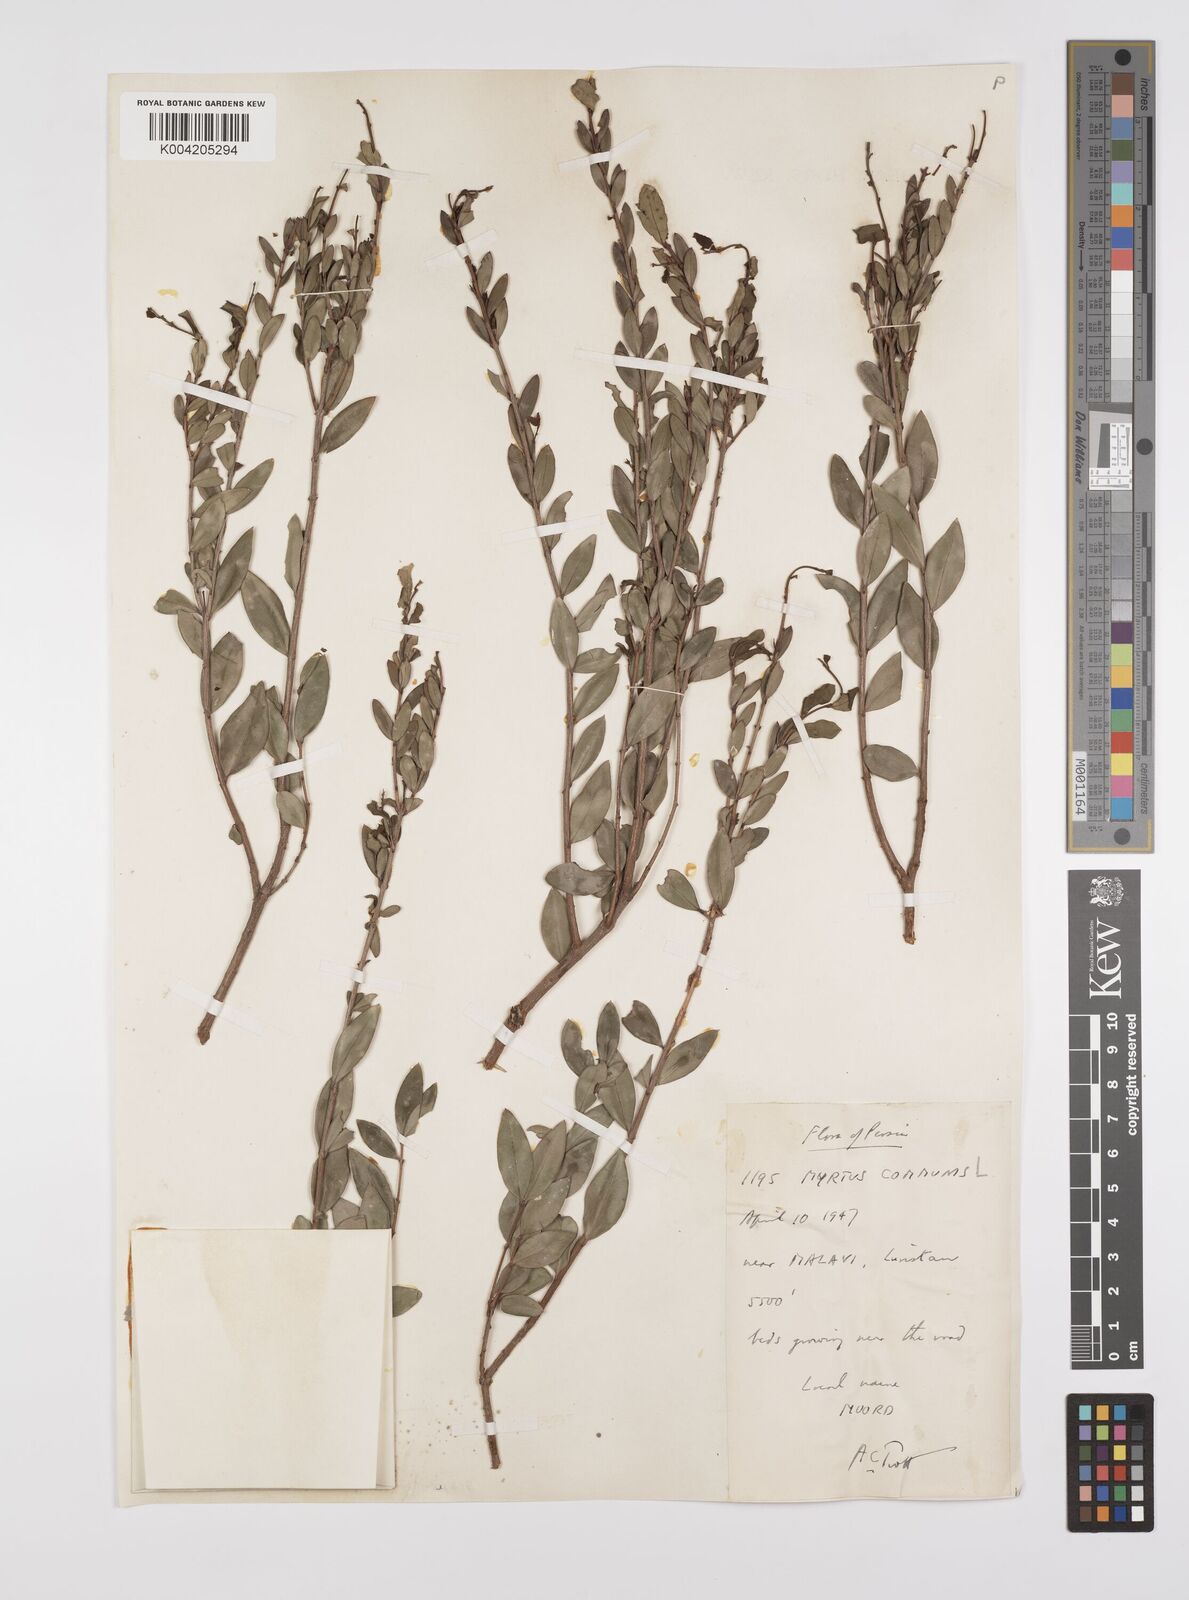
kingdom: Plantae
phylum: Tracheophyta
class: Magnoliopsida
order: Myrtales
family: Myrtaceae
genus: Myrtus
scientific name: Myrtus communis
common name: Myrtle
